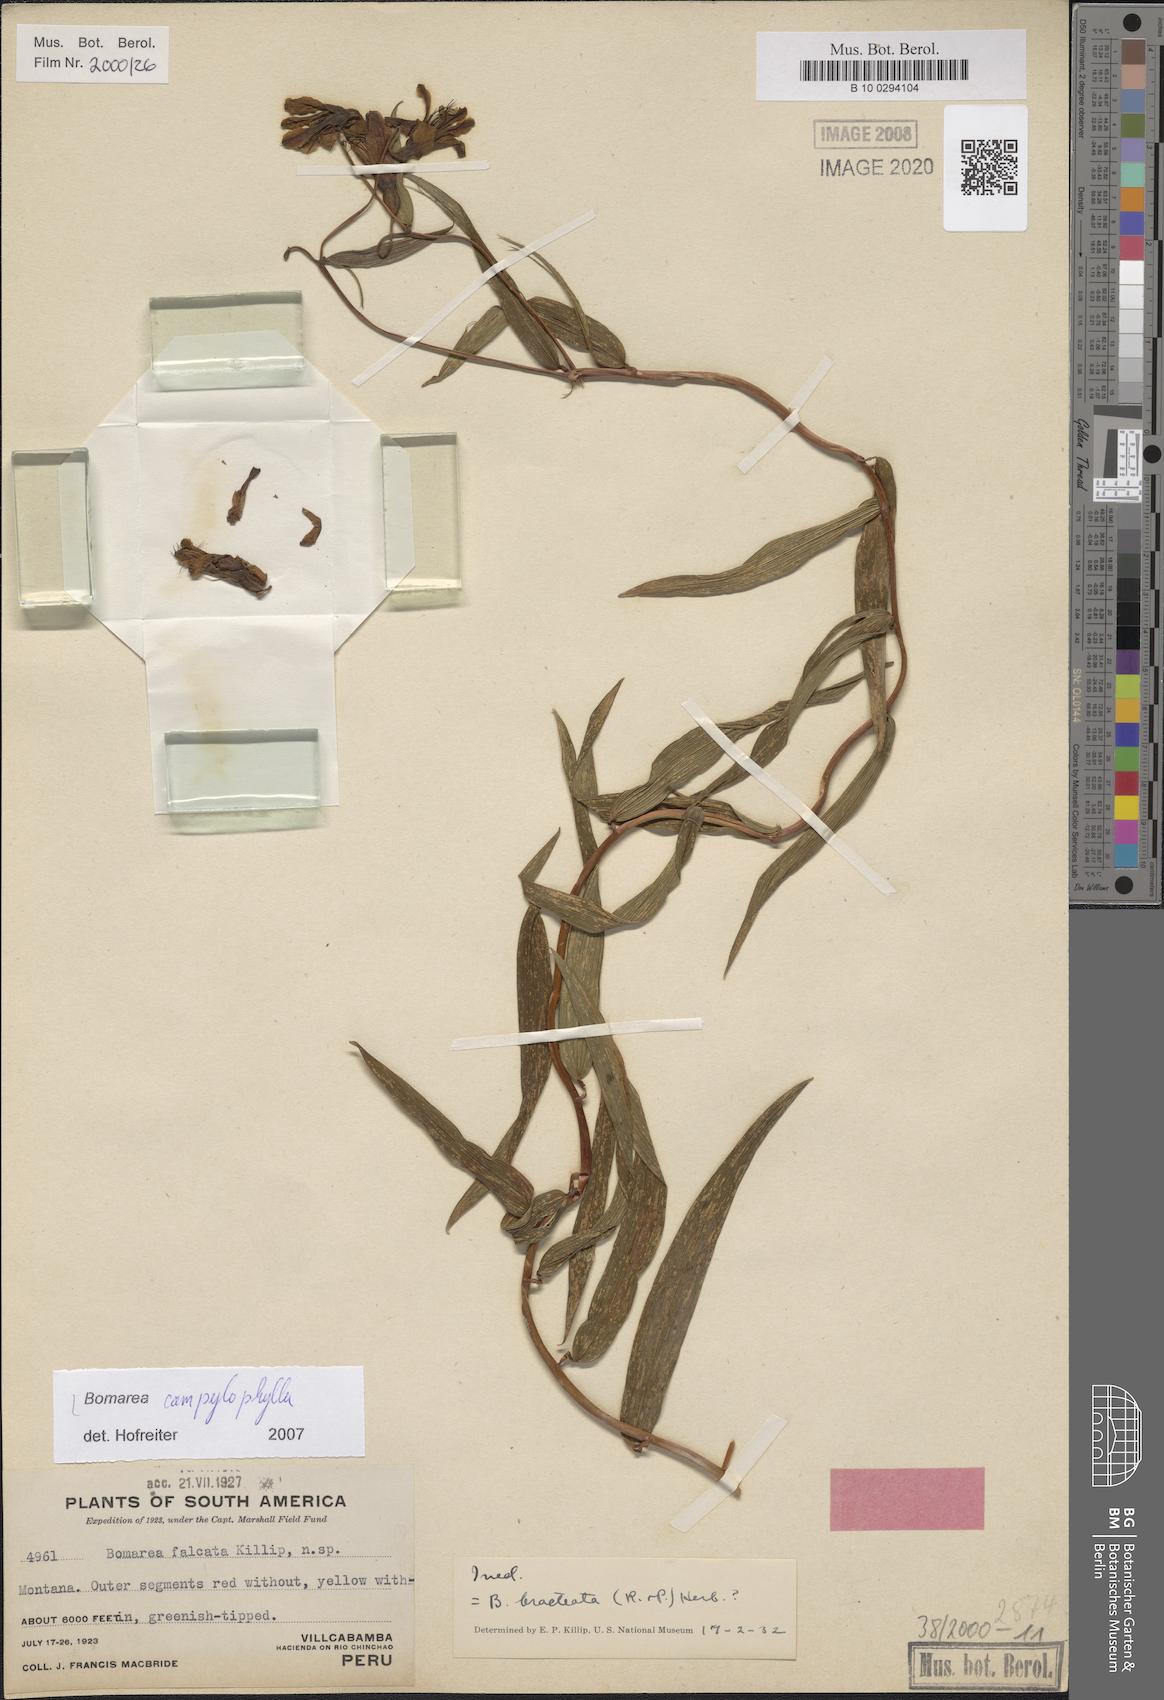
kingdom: Plantae
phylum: Tracheophyta
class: Liliopsida
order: Liliales
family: Alstroemeriaceae
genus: Bomarea
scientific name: Bomarea campylophylla
